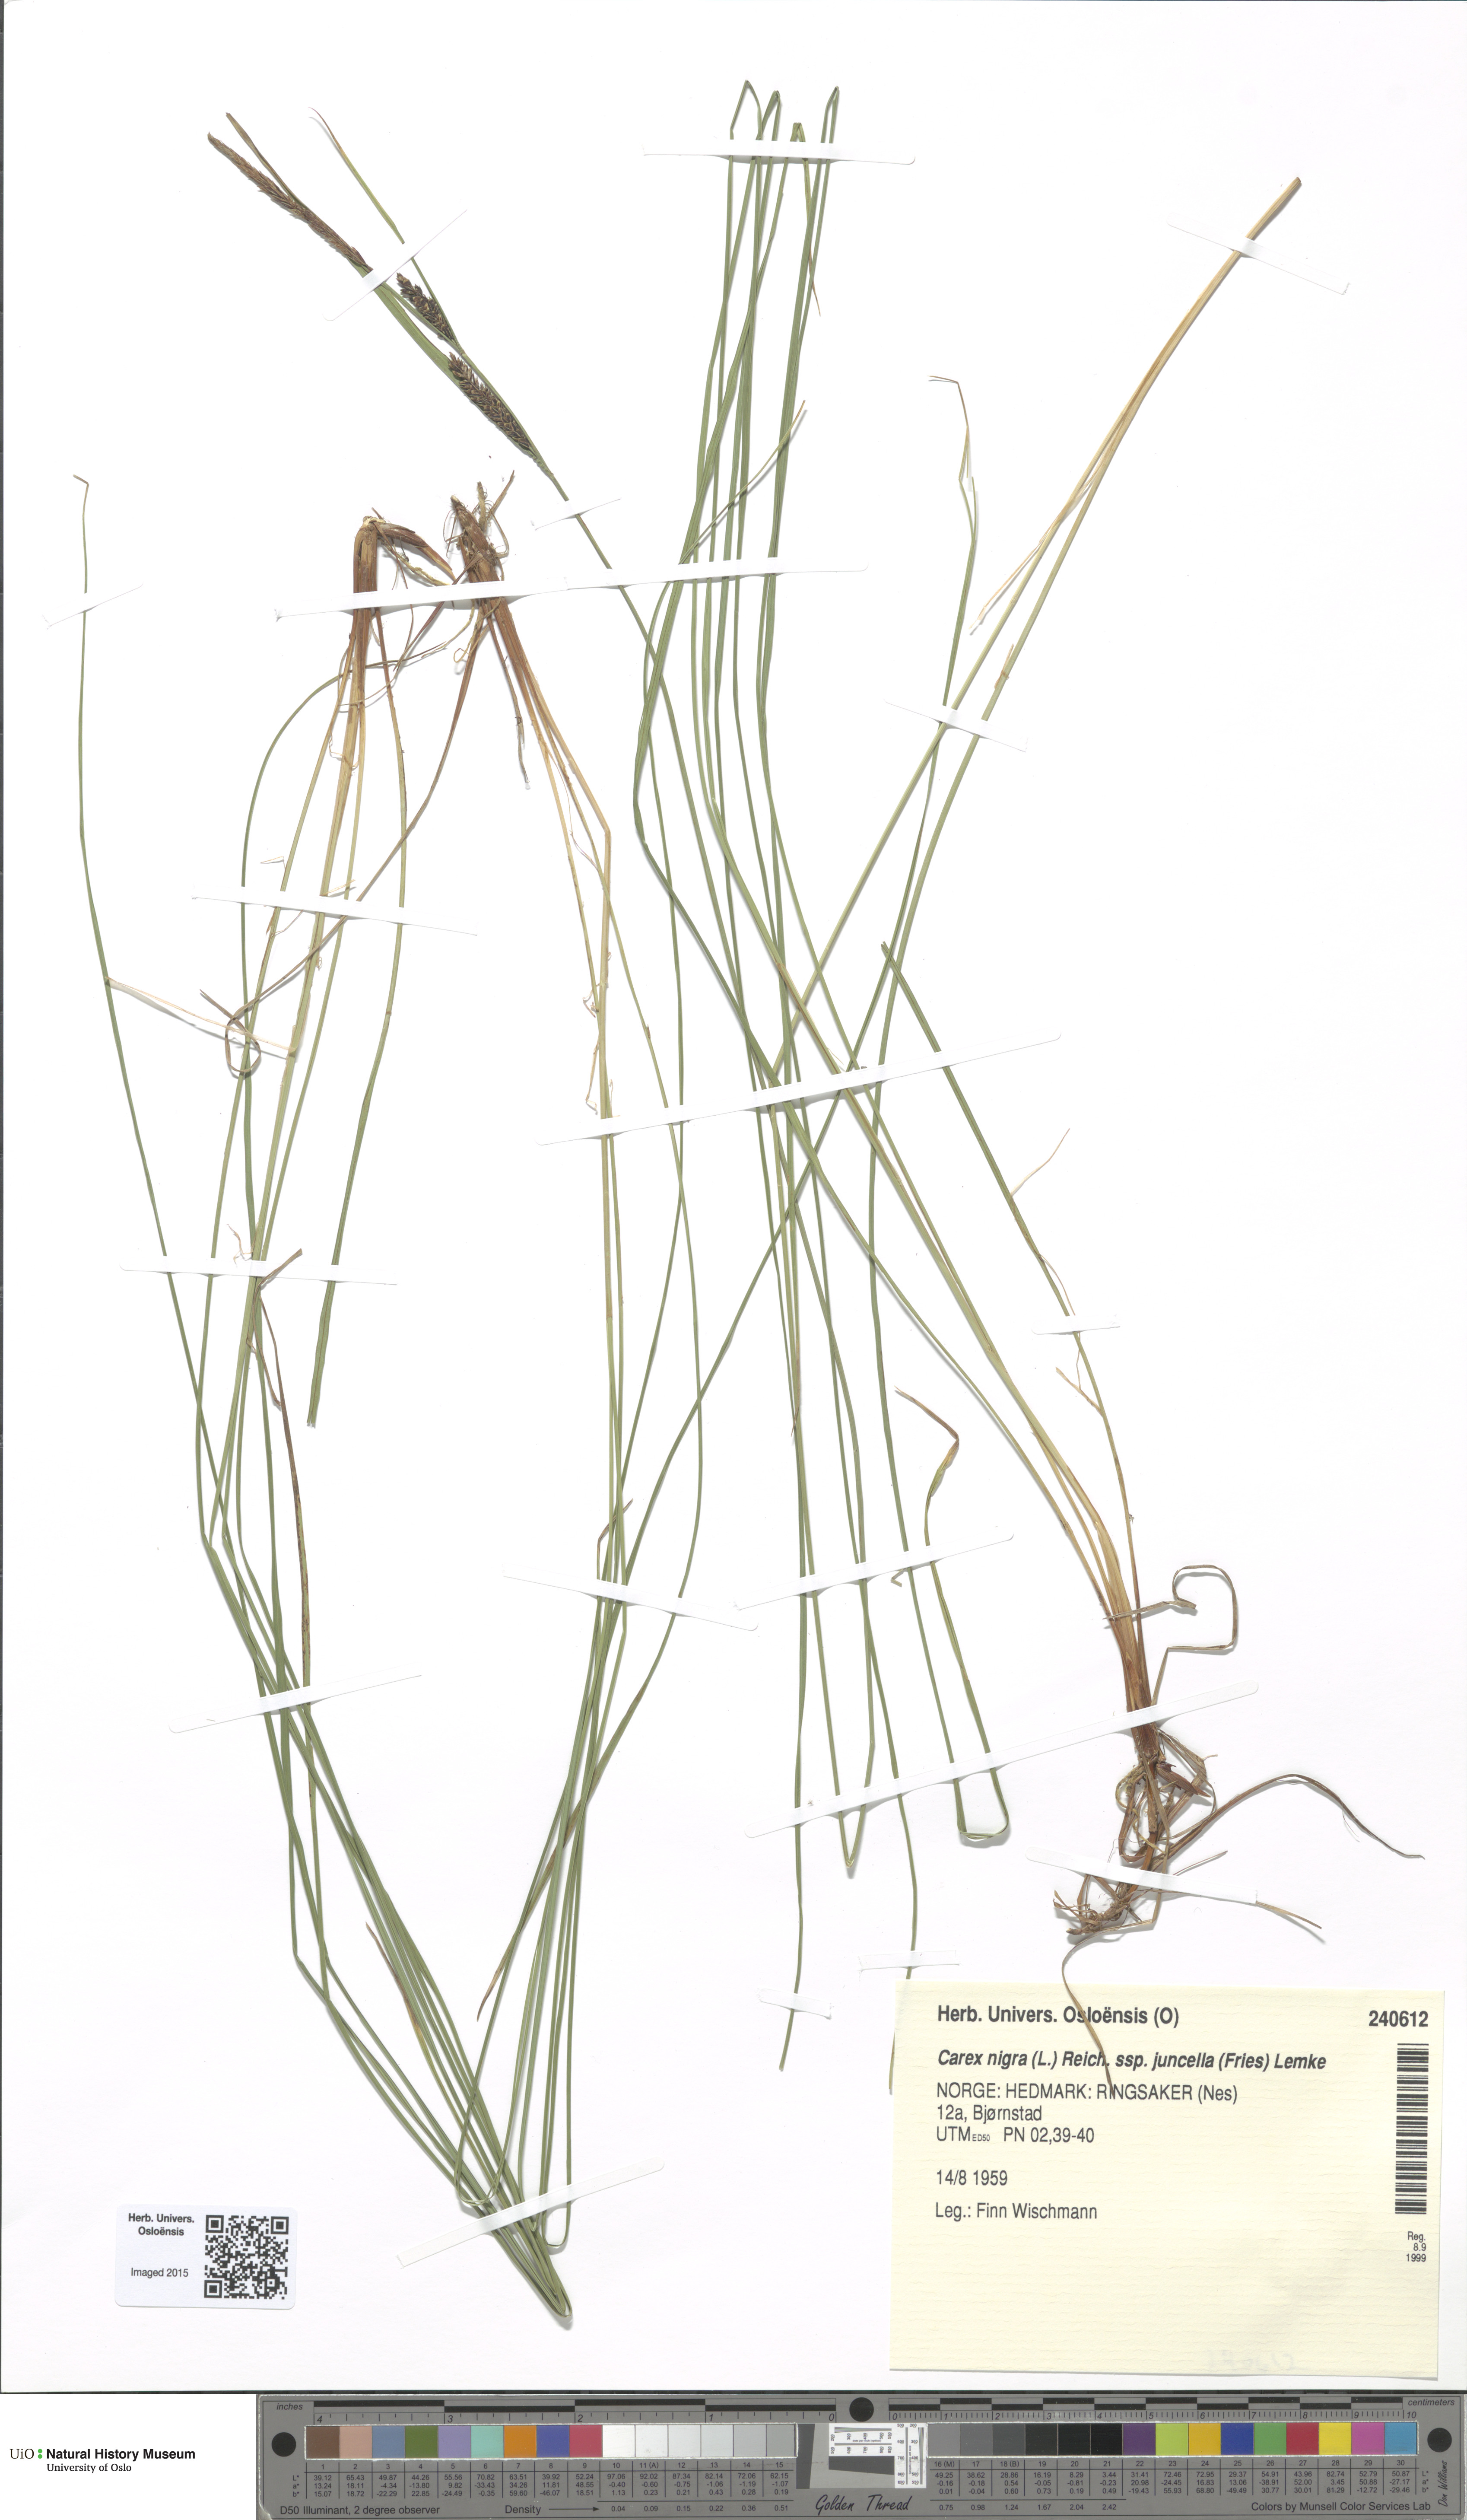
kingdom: Plantae
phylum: Tracheophyta
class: Liliopsida
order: Poales
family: Cyperaceae
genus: Carex
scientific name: Carex nigra
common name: Common sedge
